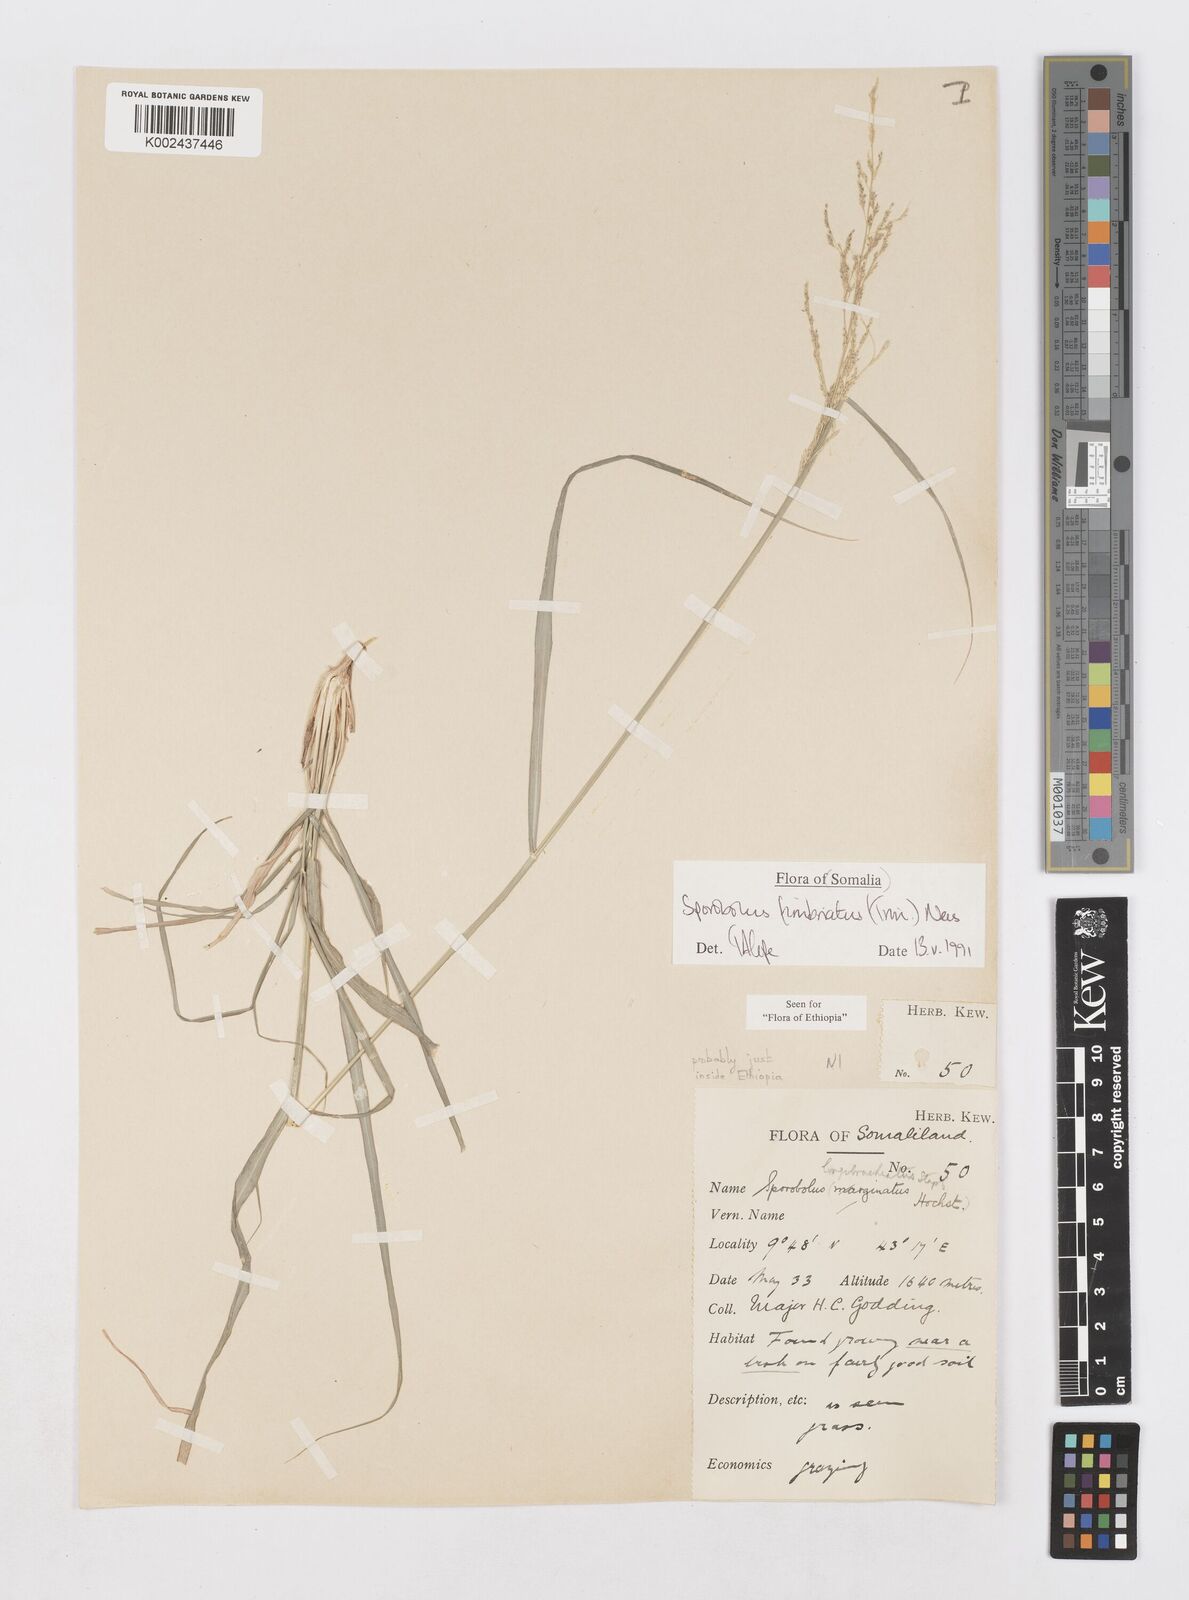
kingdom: Plantae
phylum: Tracheophyta
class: Liliopsida
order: Poales
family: Poaceae
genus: Sporobolus
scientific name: Sporobolus fimbriatus
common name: Fringed dropseed
